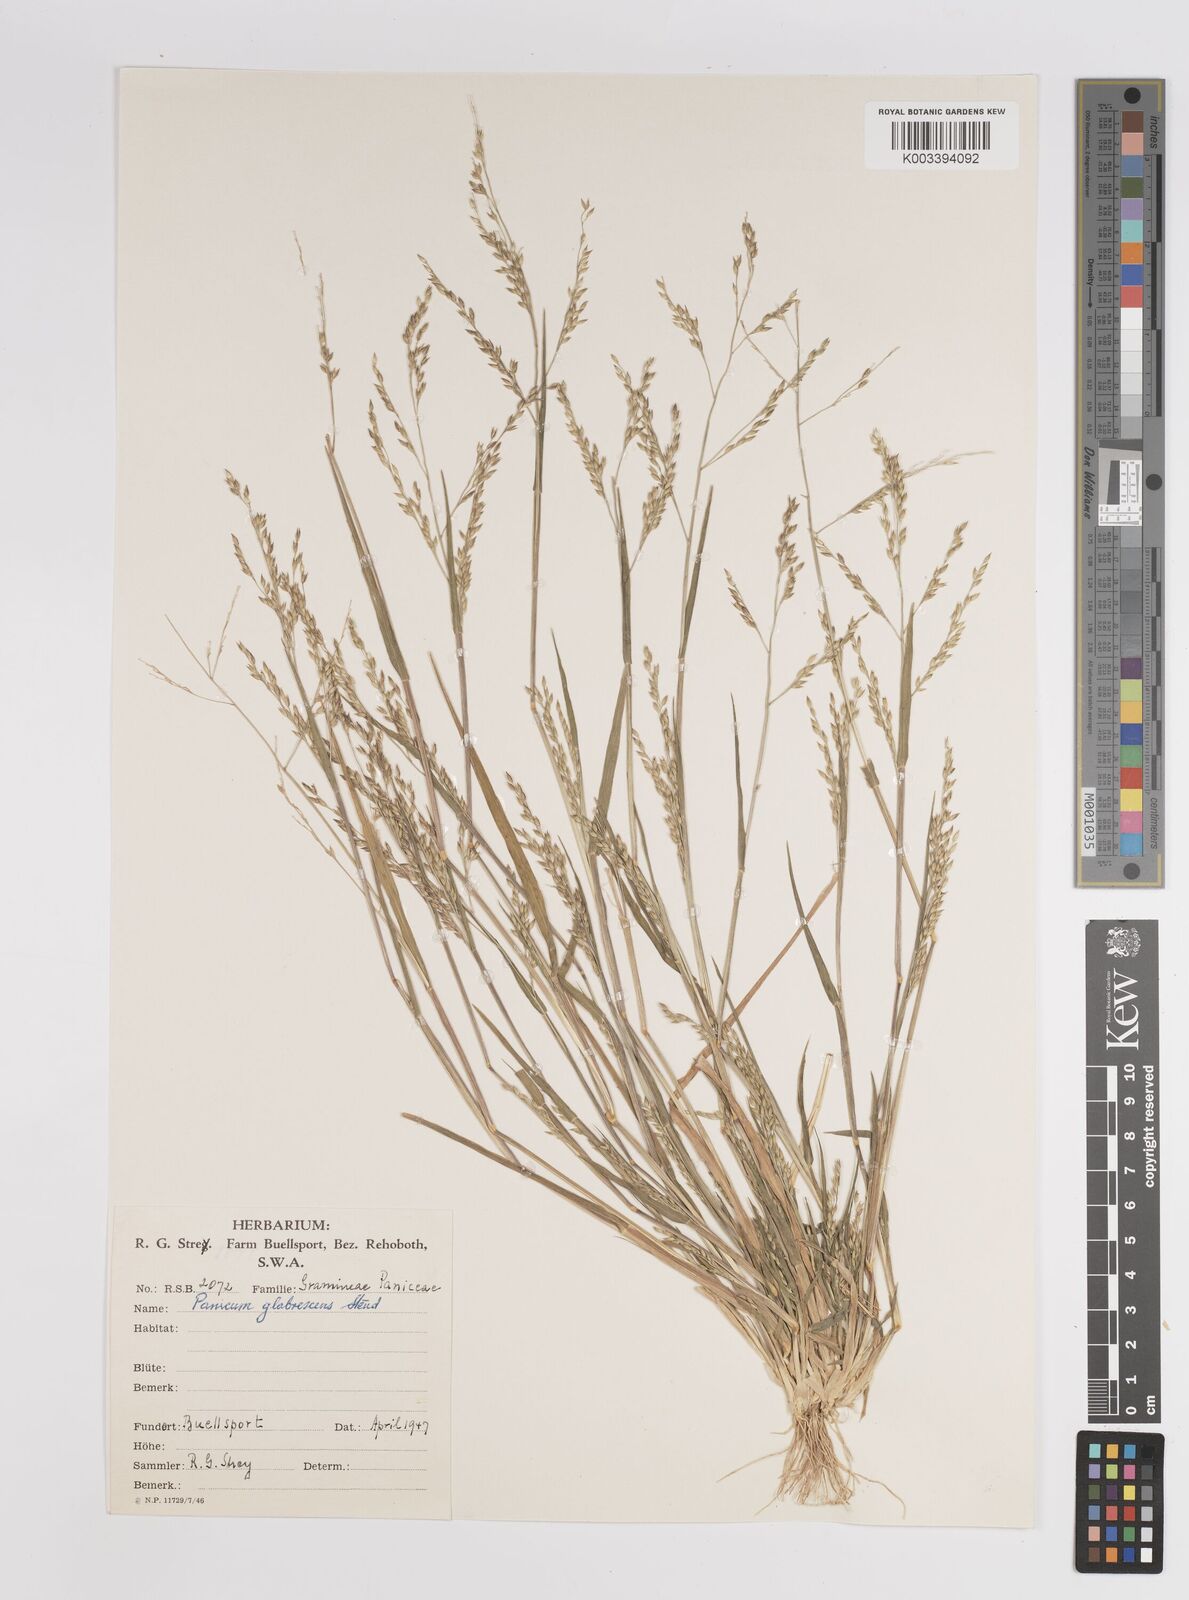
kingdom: Plantae
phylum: Tracheophyta
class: Liliopsida
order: Poales
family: Poaceae
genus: Panicum
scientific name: Panicum impeditum
